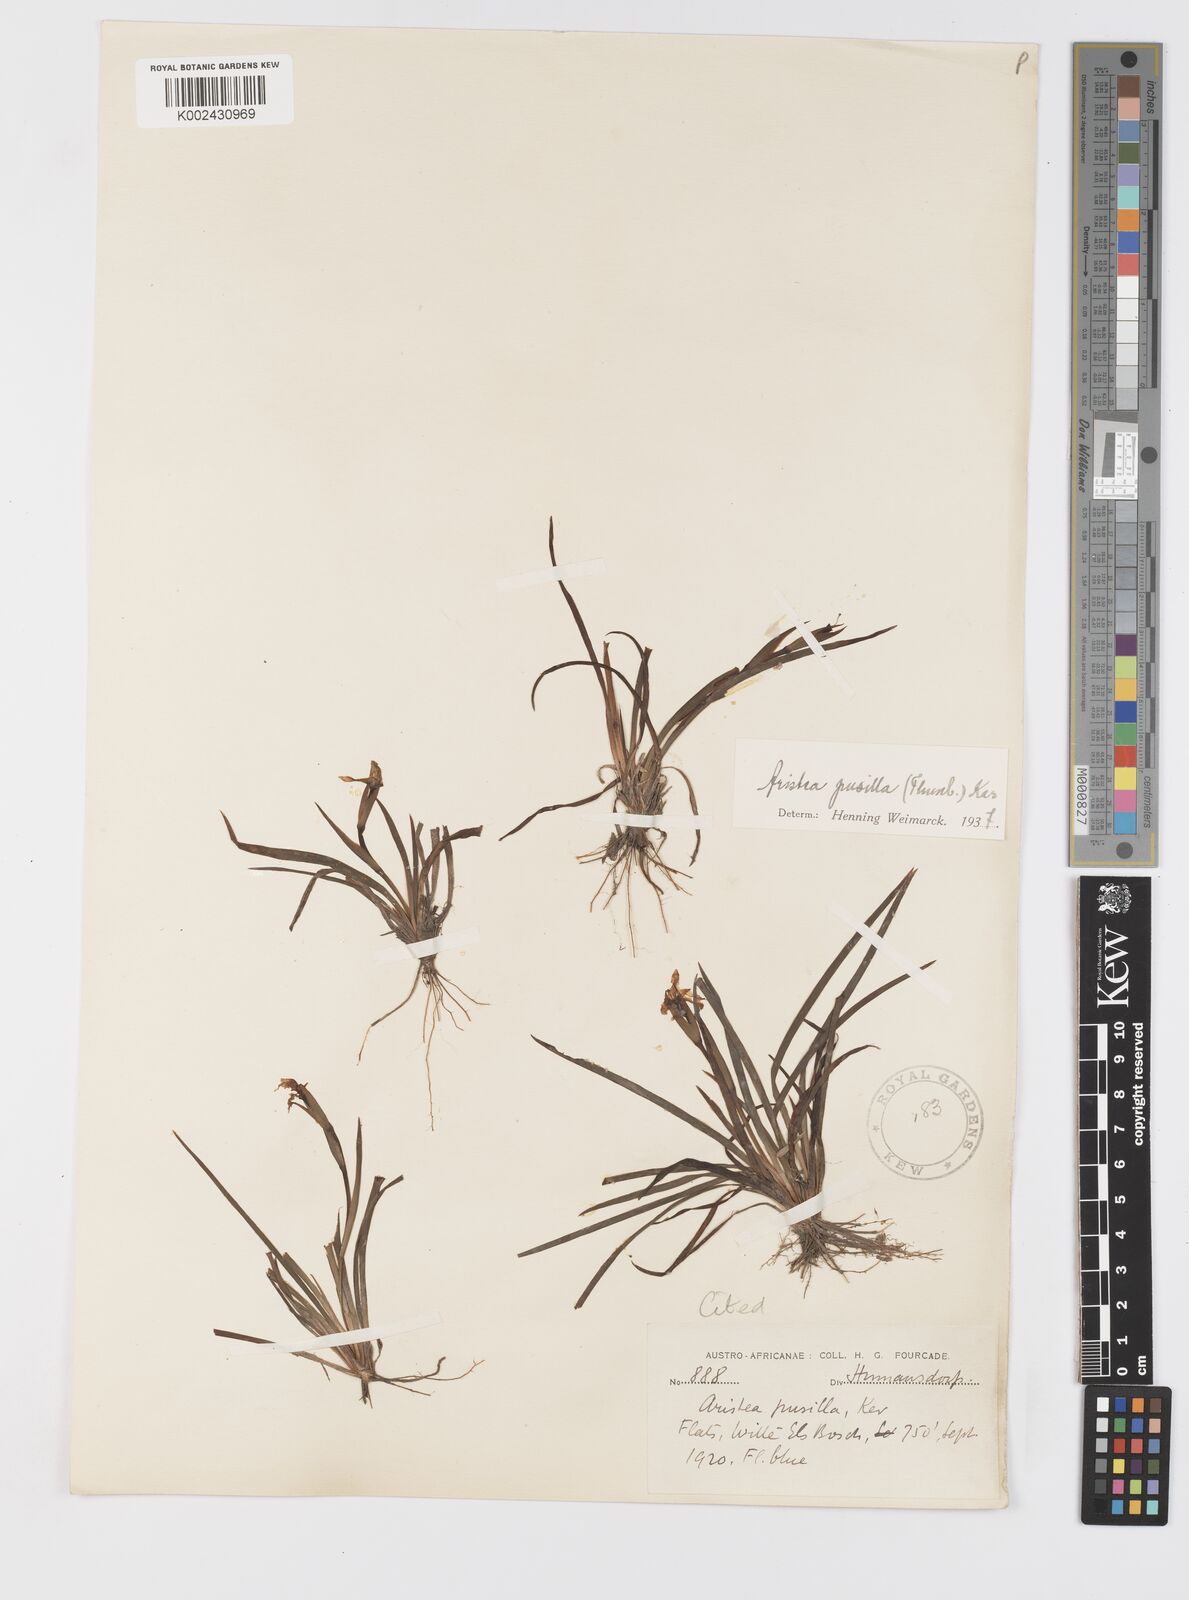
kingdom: Plantae
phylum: Tracheophyta
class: Liliopsida
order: Asparagales
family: Iridaceae
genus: Aristea
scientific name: Aristea pusilla
